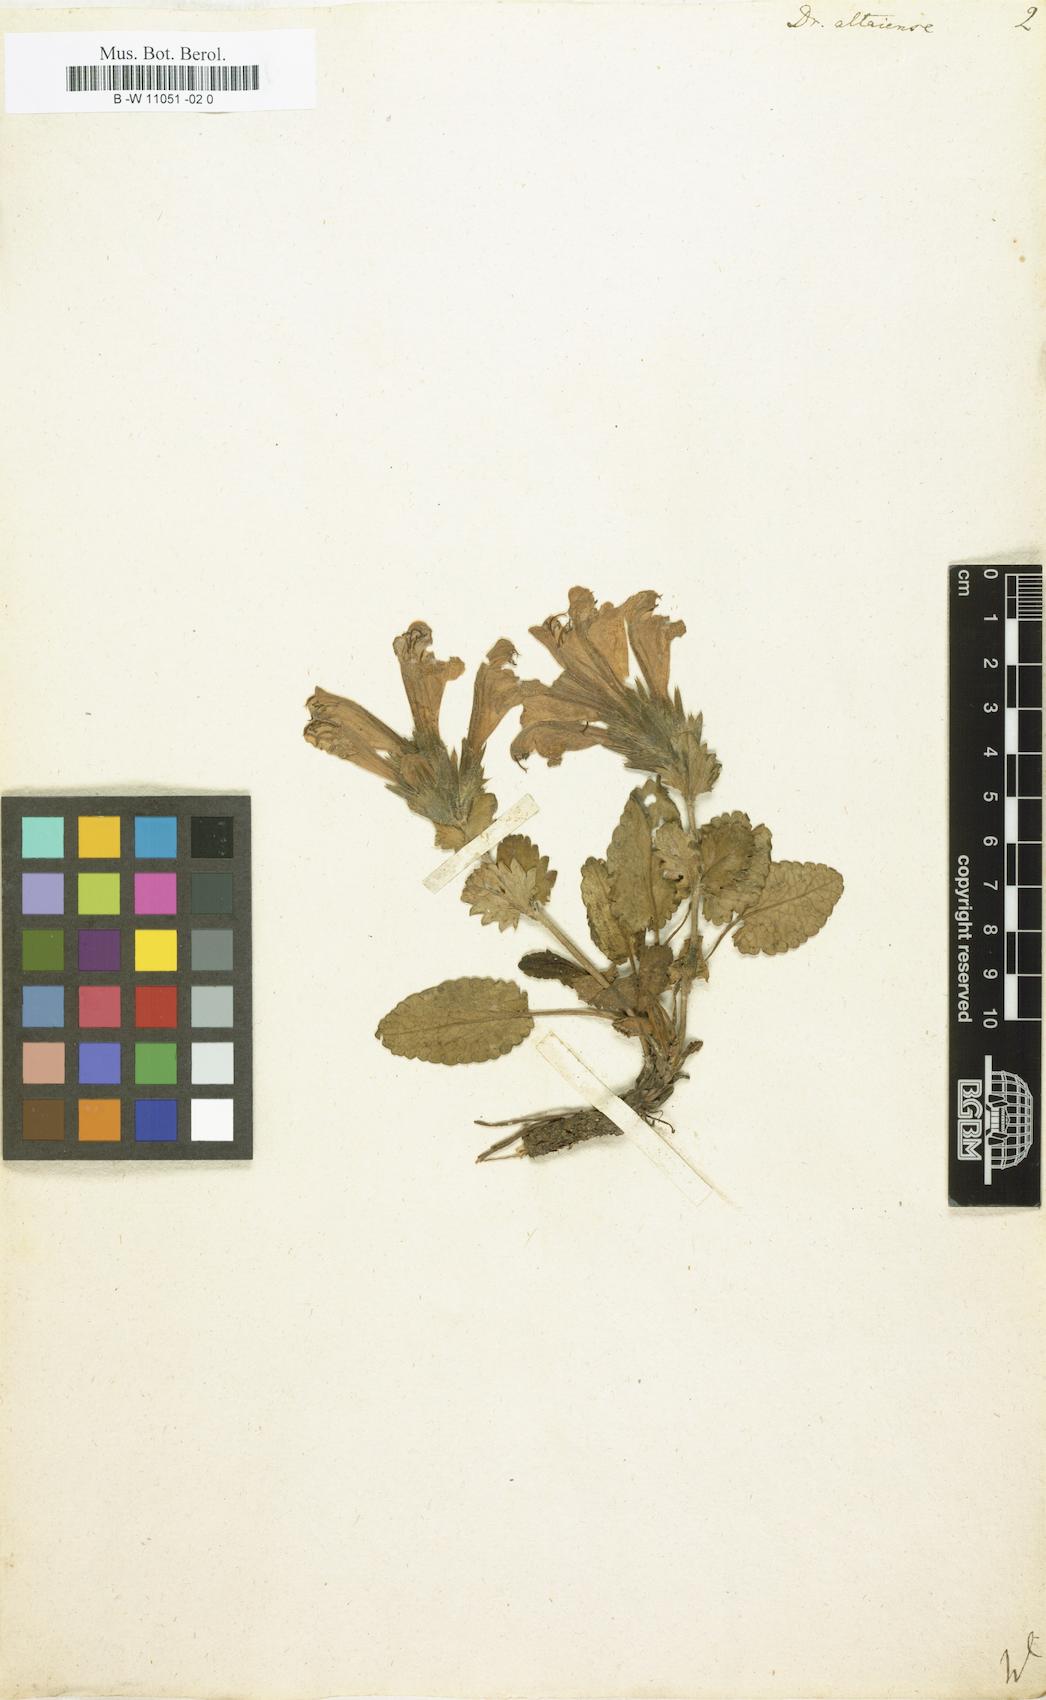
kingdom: Plantae
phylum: Tracheophyta
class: Magnoliopsida
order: Lamiales
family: Lamiaceae
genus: Dracocephalum
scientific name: Dracocephalum
